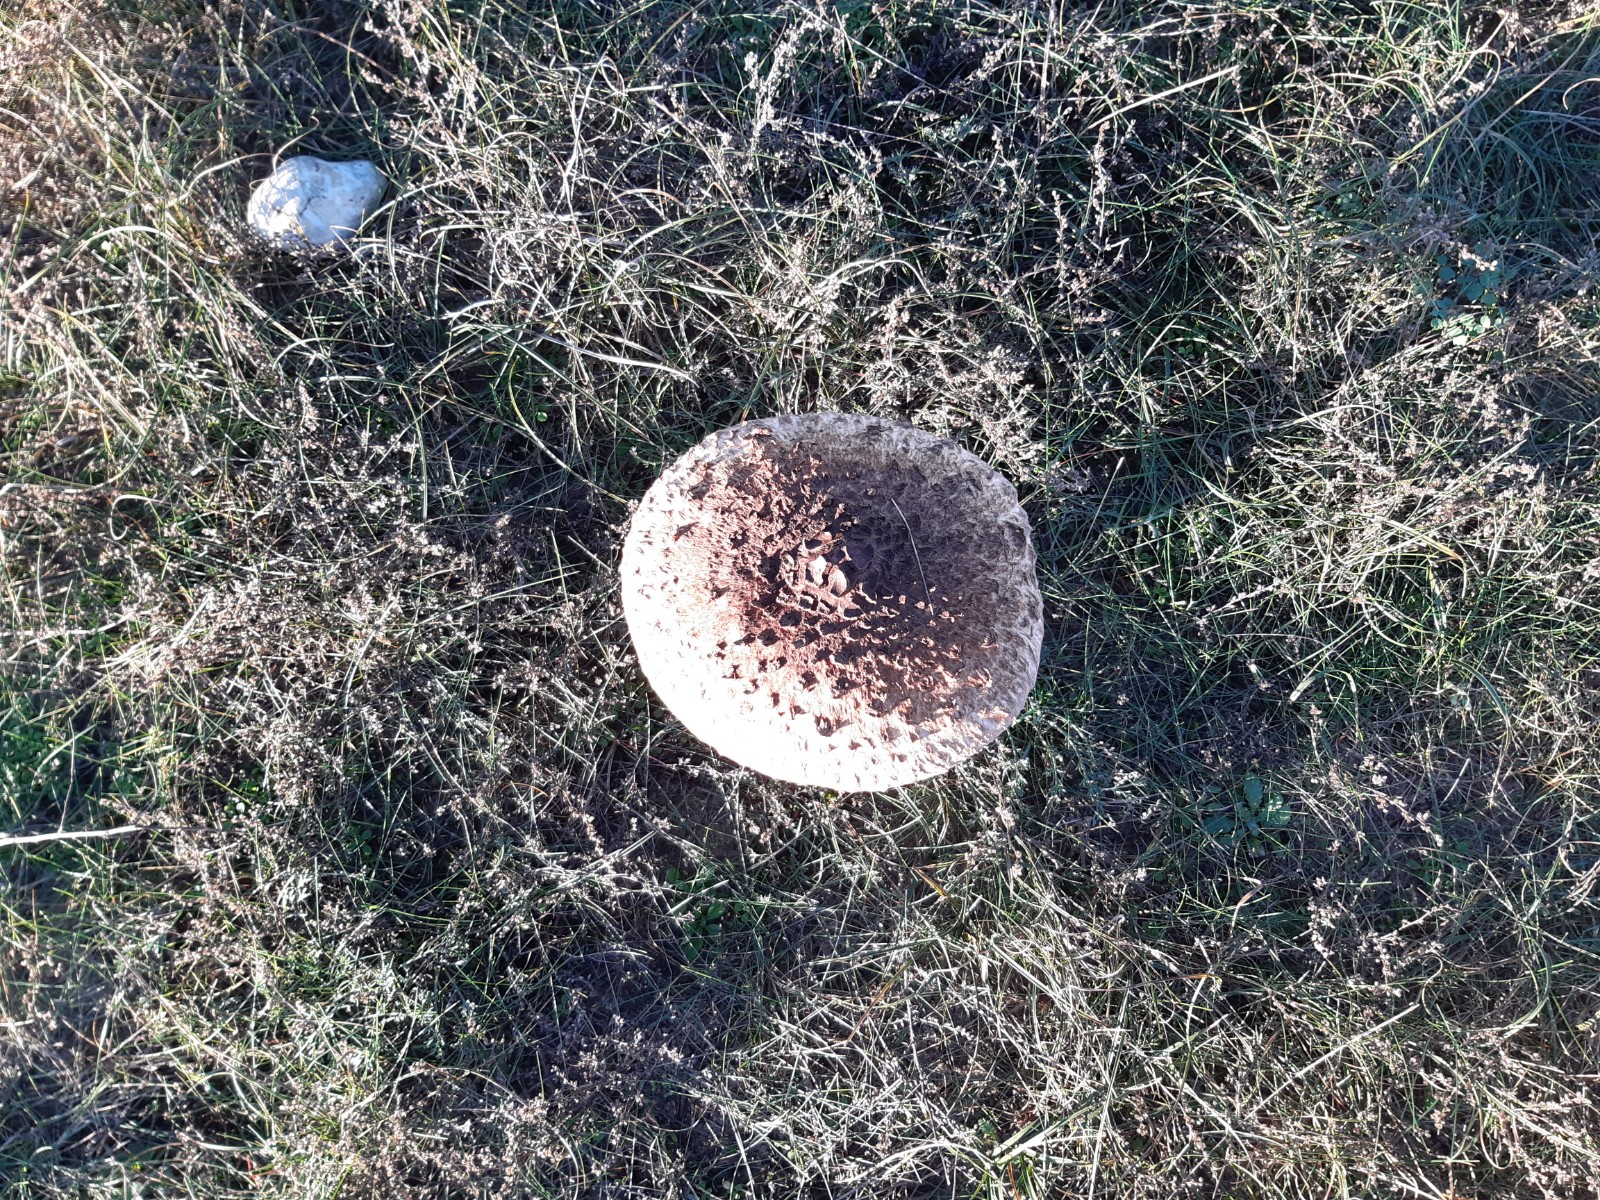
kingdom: Fungi
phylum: Basidiomycota
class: Agaricomycetes
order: Agaricales
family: Agaricaceae
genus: Macrolepiota
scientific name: Macrolepiota procera
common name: stor kæmpeparasolhat
